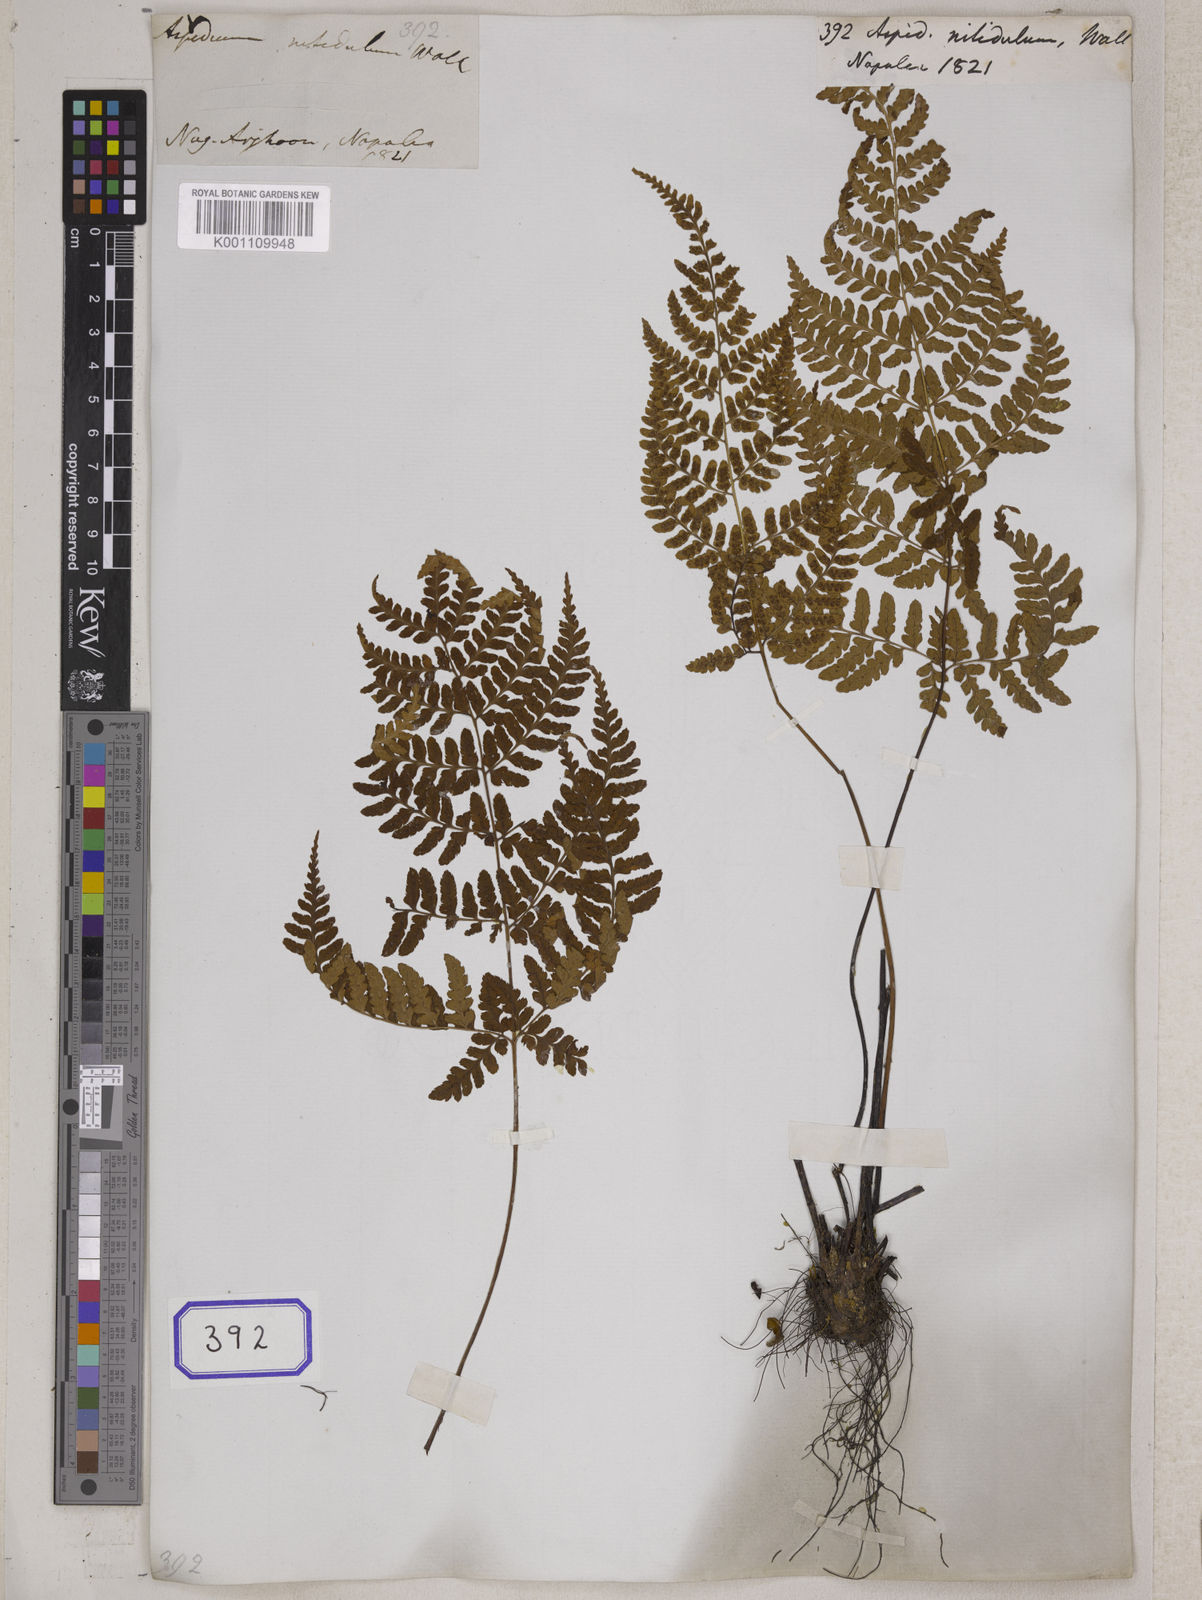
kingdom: Plantae
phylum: Tracheophyta
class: Polypodiopsida
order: Polypodiales
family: Dryopteridaceae
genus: Dryopteris
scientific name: Dryopteris sinonepalensis
